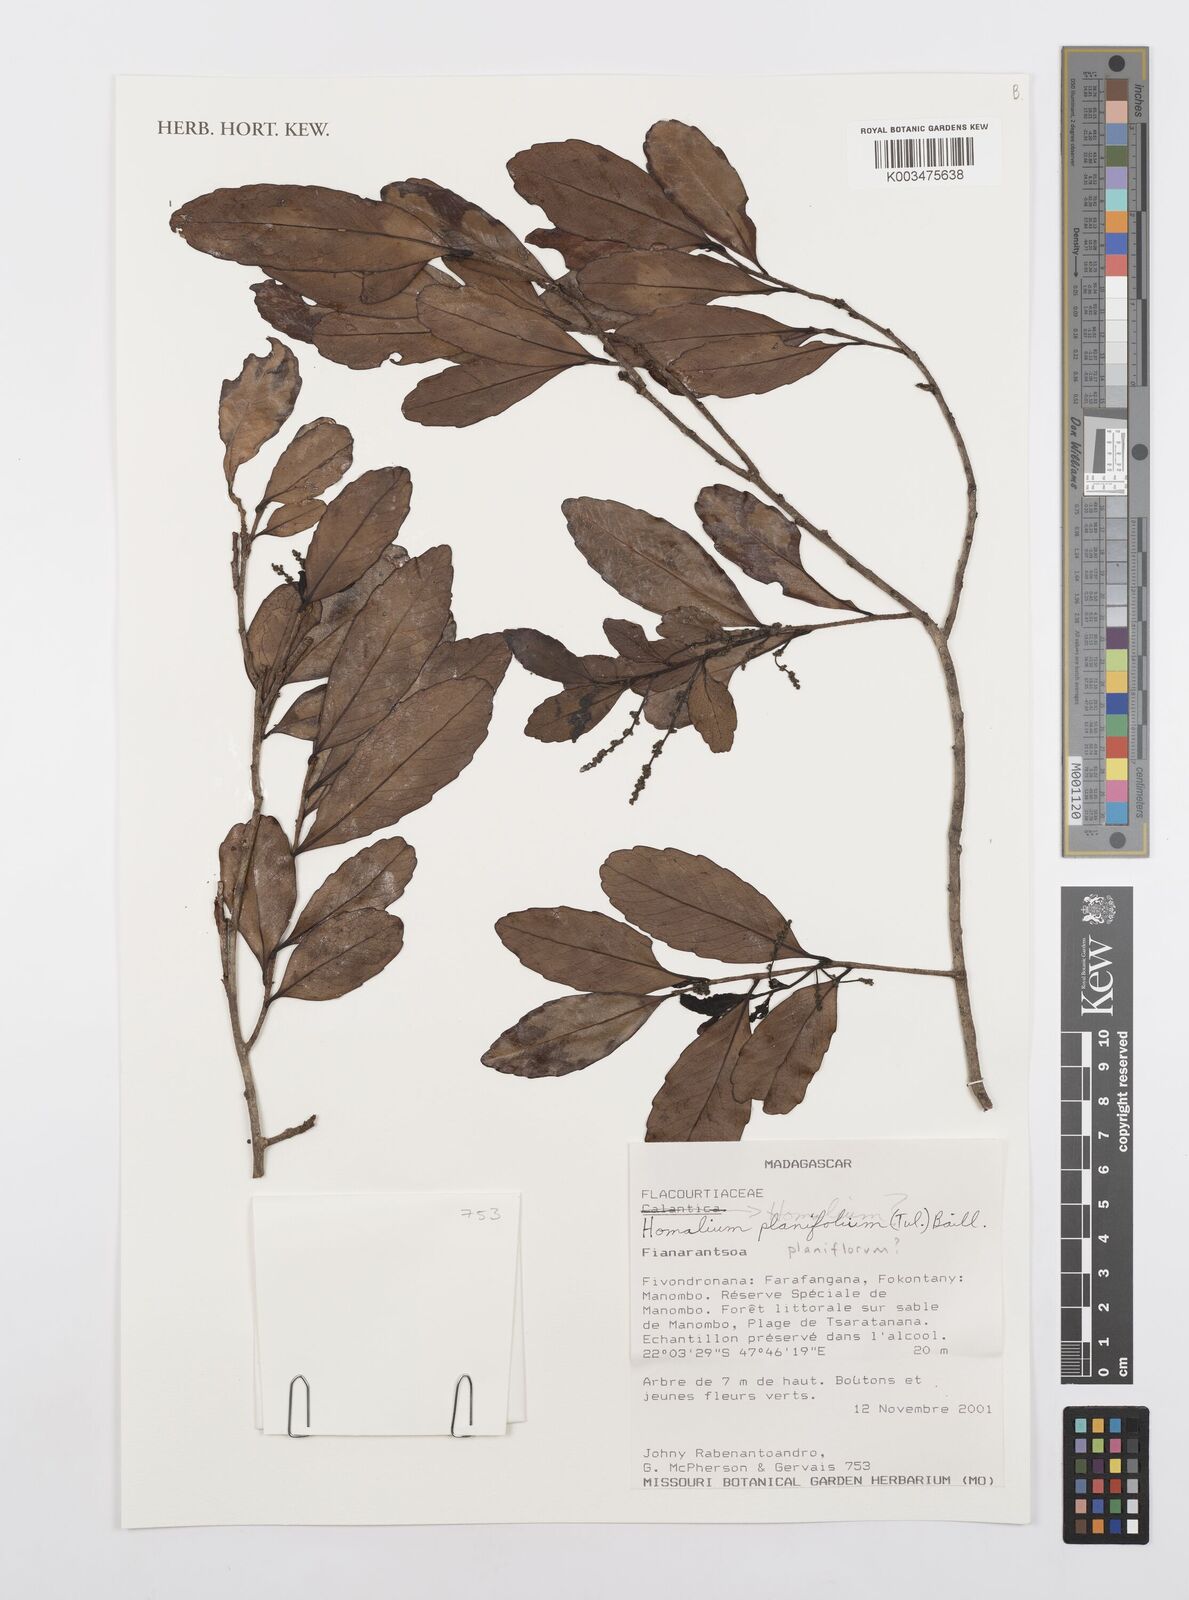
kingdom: Plantae
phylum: Tracheophyta
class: Magnoliopsida
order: Malpighiales
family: Salicaceae
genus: Homalium
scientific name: Homalium planiflorum
